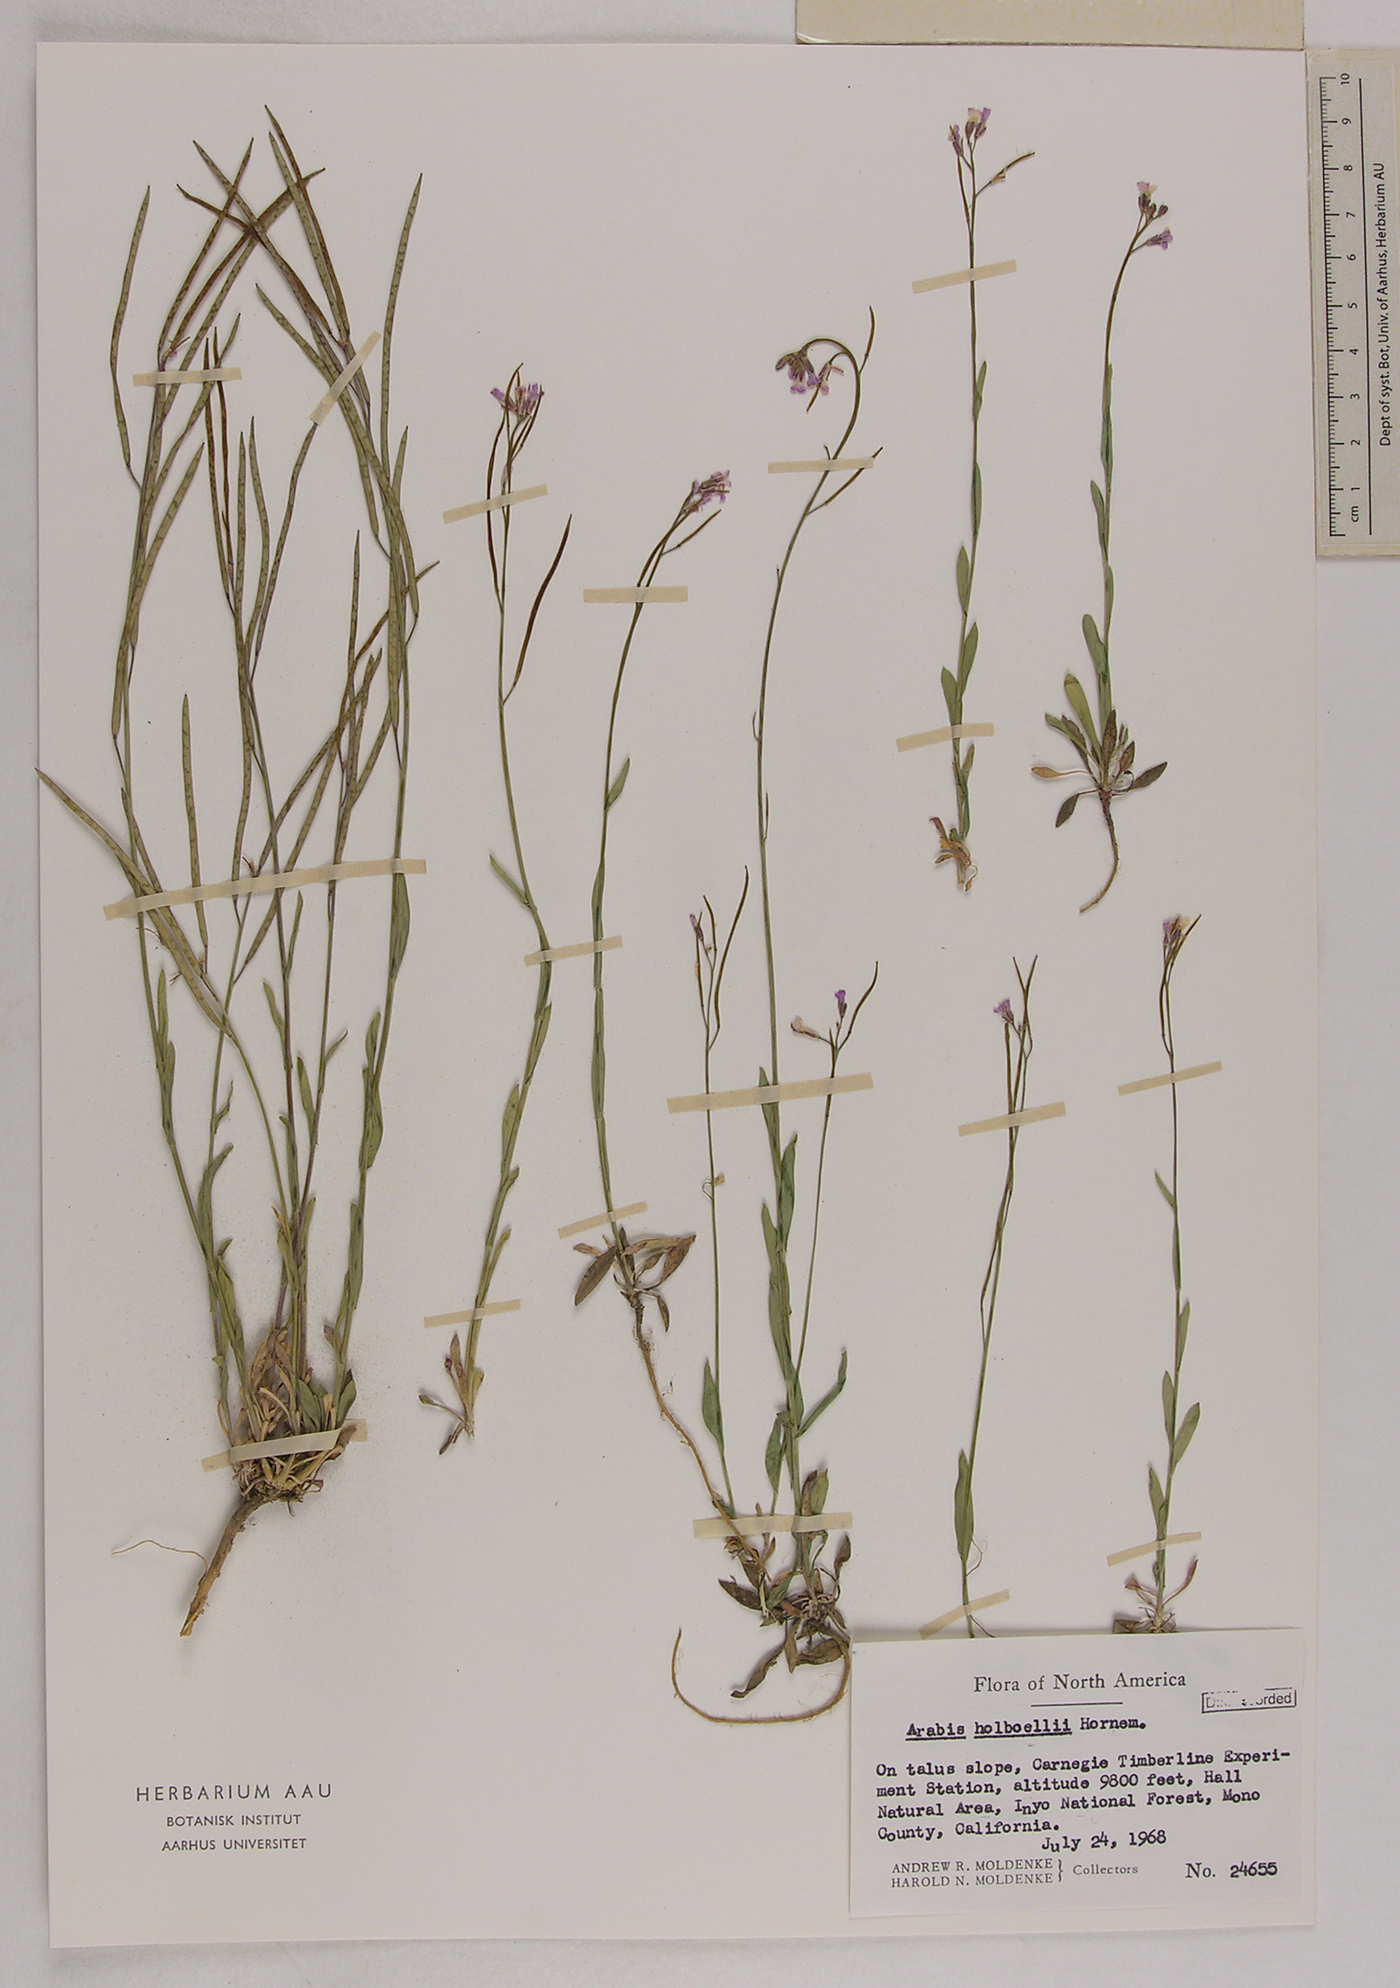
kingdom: Plantae
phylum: Tracheophyta
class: Magnoliopsida
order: Brassicales
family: Brassicaceae
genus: Boechera
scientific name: Boechera holboellii
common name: Holboell's rockcress
